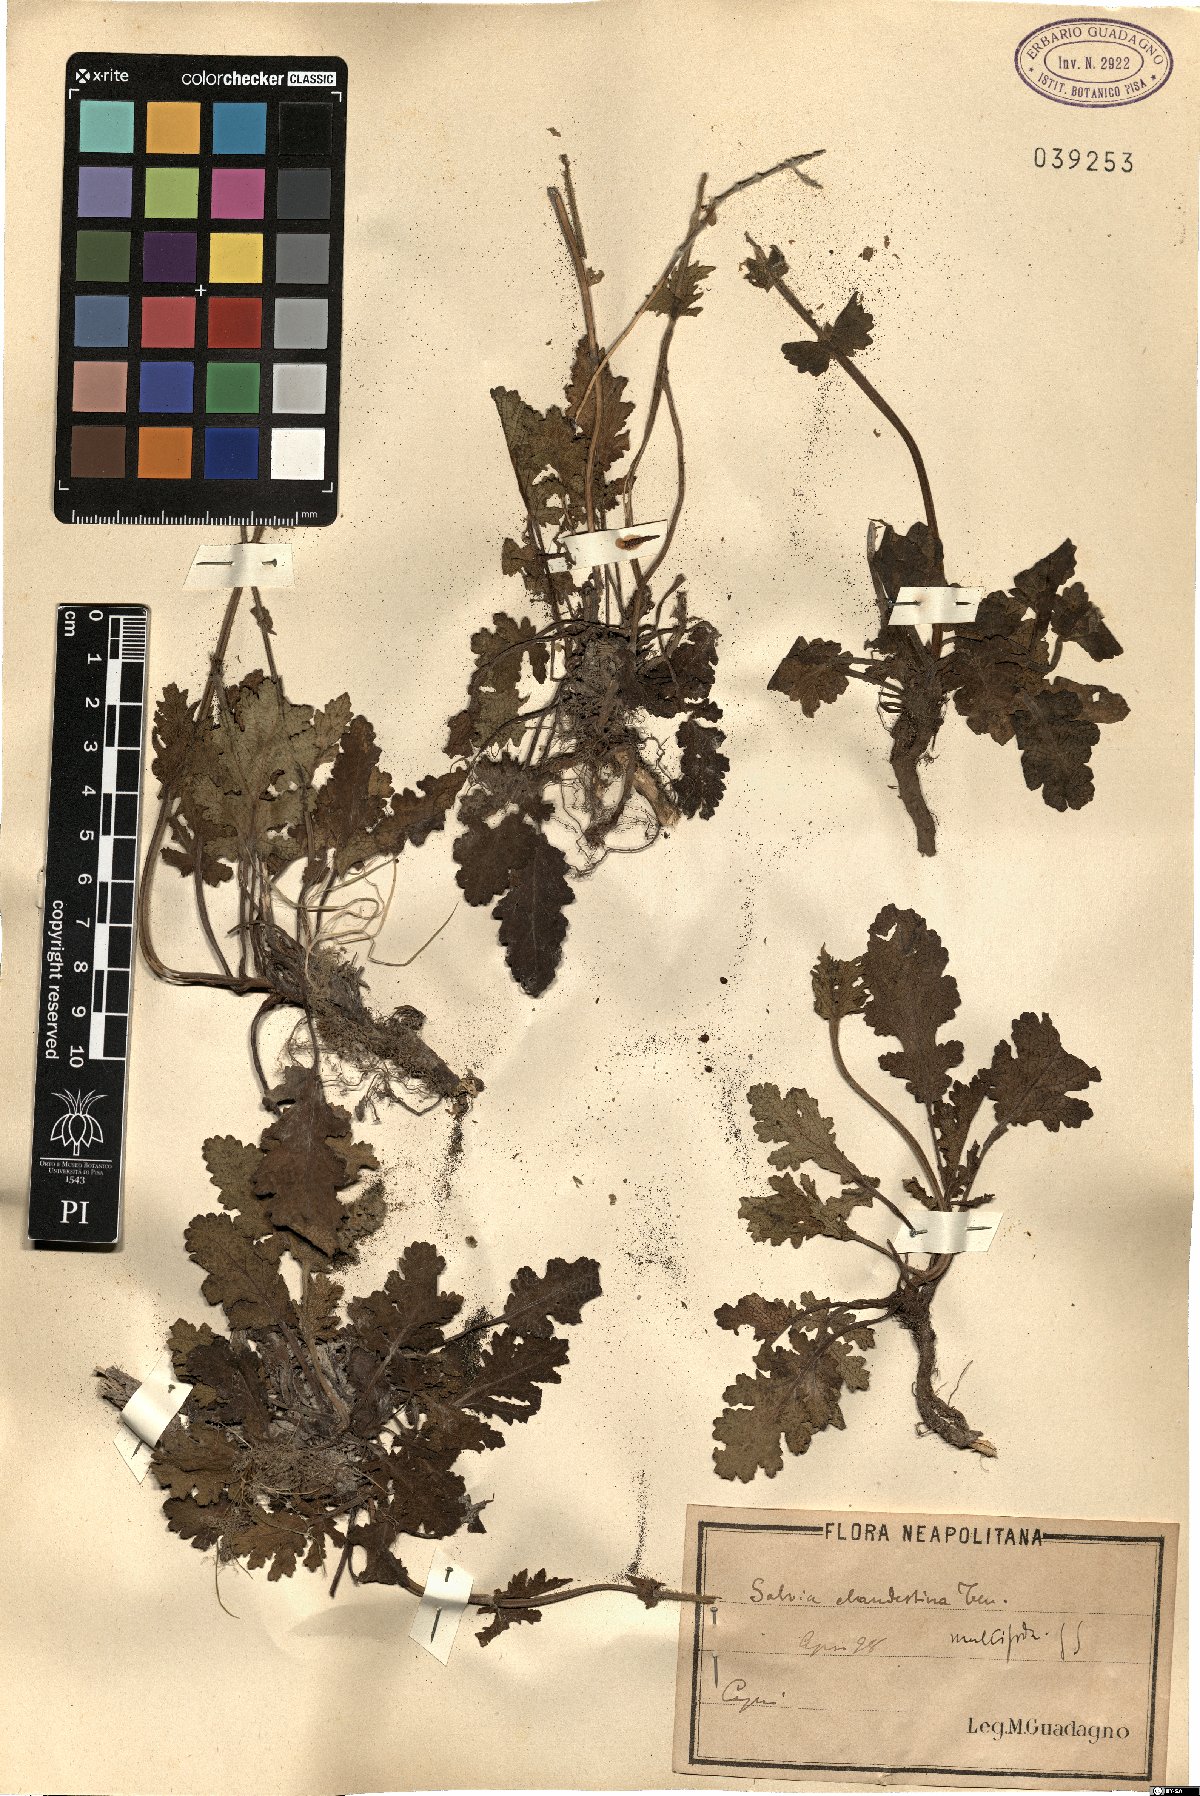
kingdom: Plantae
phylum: Tracheophyta
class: Magnoliopsida
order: Lamiales
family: Lamiaceae
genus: Salvia
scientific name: Salvia verbenaca
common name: Wild clary
